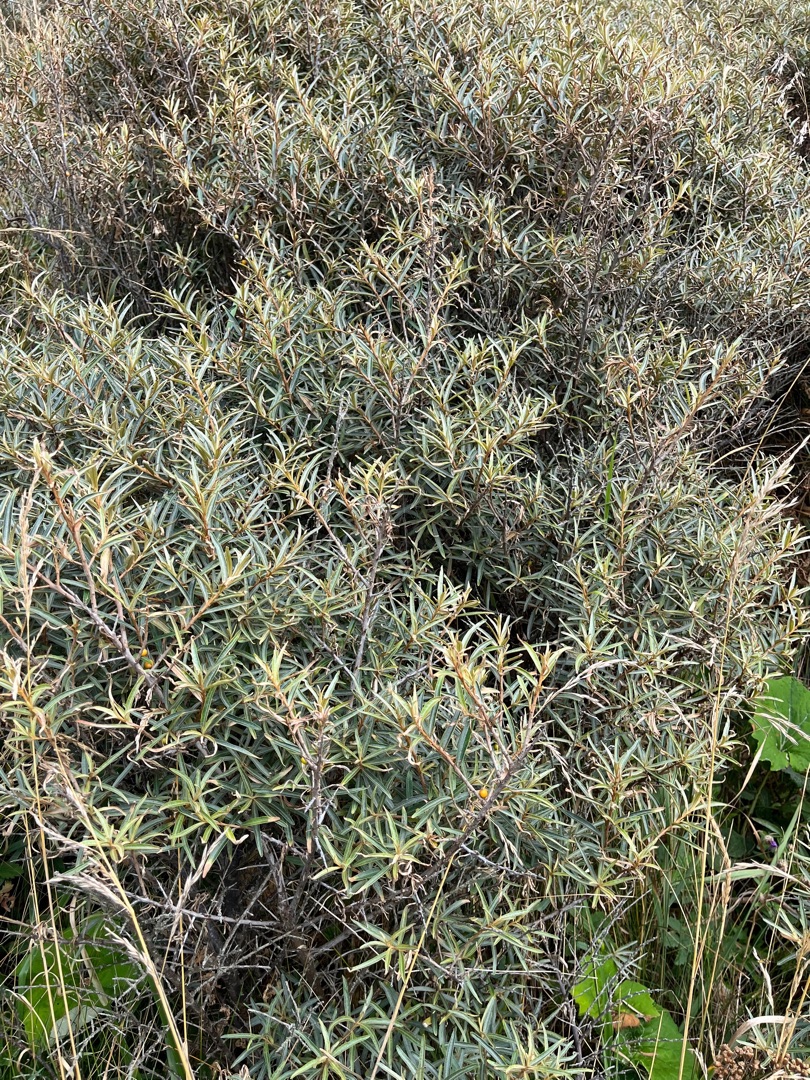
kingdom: Plantae
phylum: Tracheophyta
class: Magnoliopsida
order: Rosales
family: Elaeagnaceae
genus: Hippophae
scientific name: Hippophae rhamnoides
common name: Havtorn
